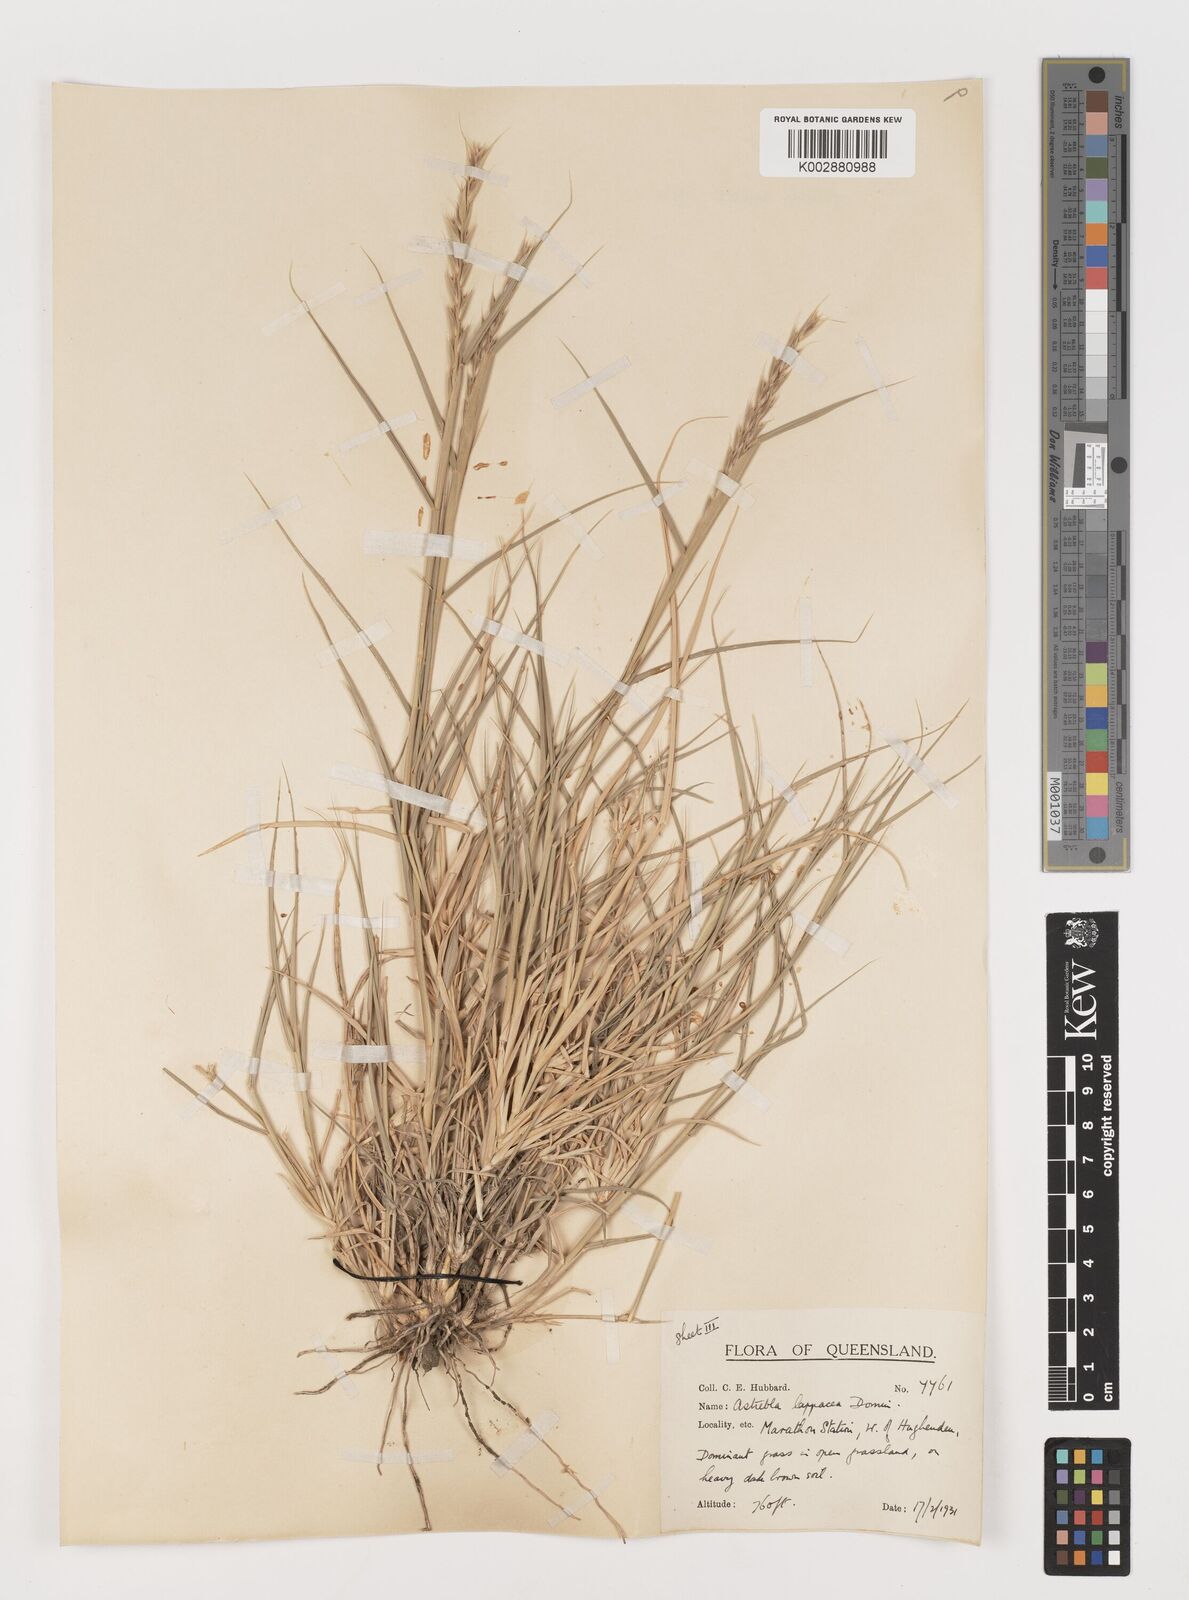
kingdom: Plantae
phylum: Tracheophyta
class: Liliopsida
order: Poales
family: Poaceae
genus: Astrebla
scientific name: Astrebla lappacea
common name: Curly mitchell grass
